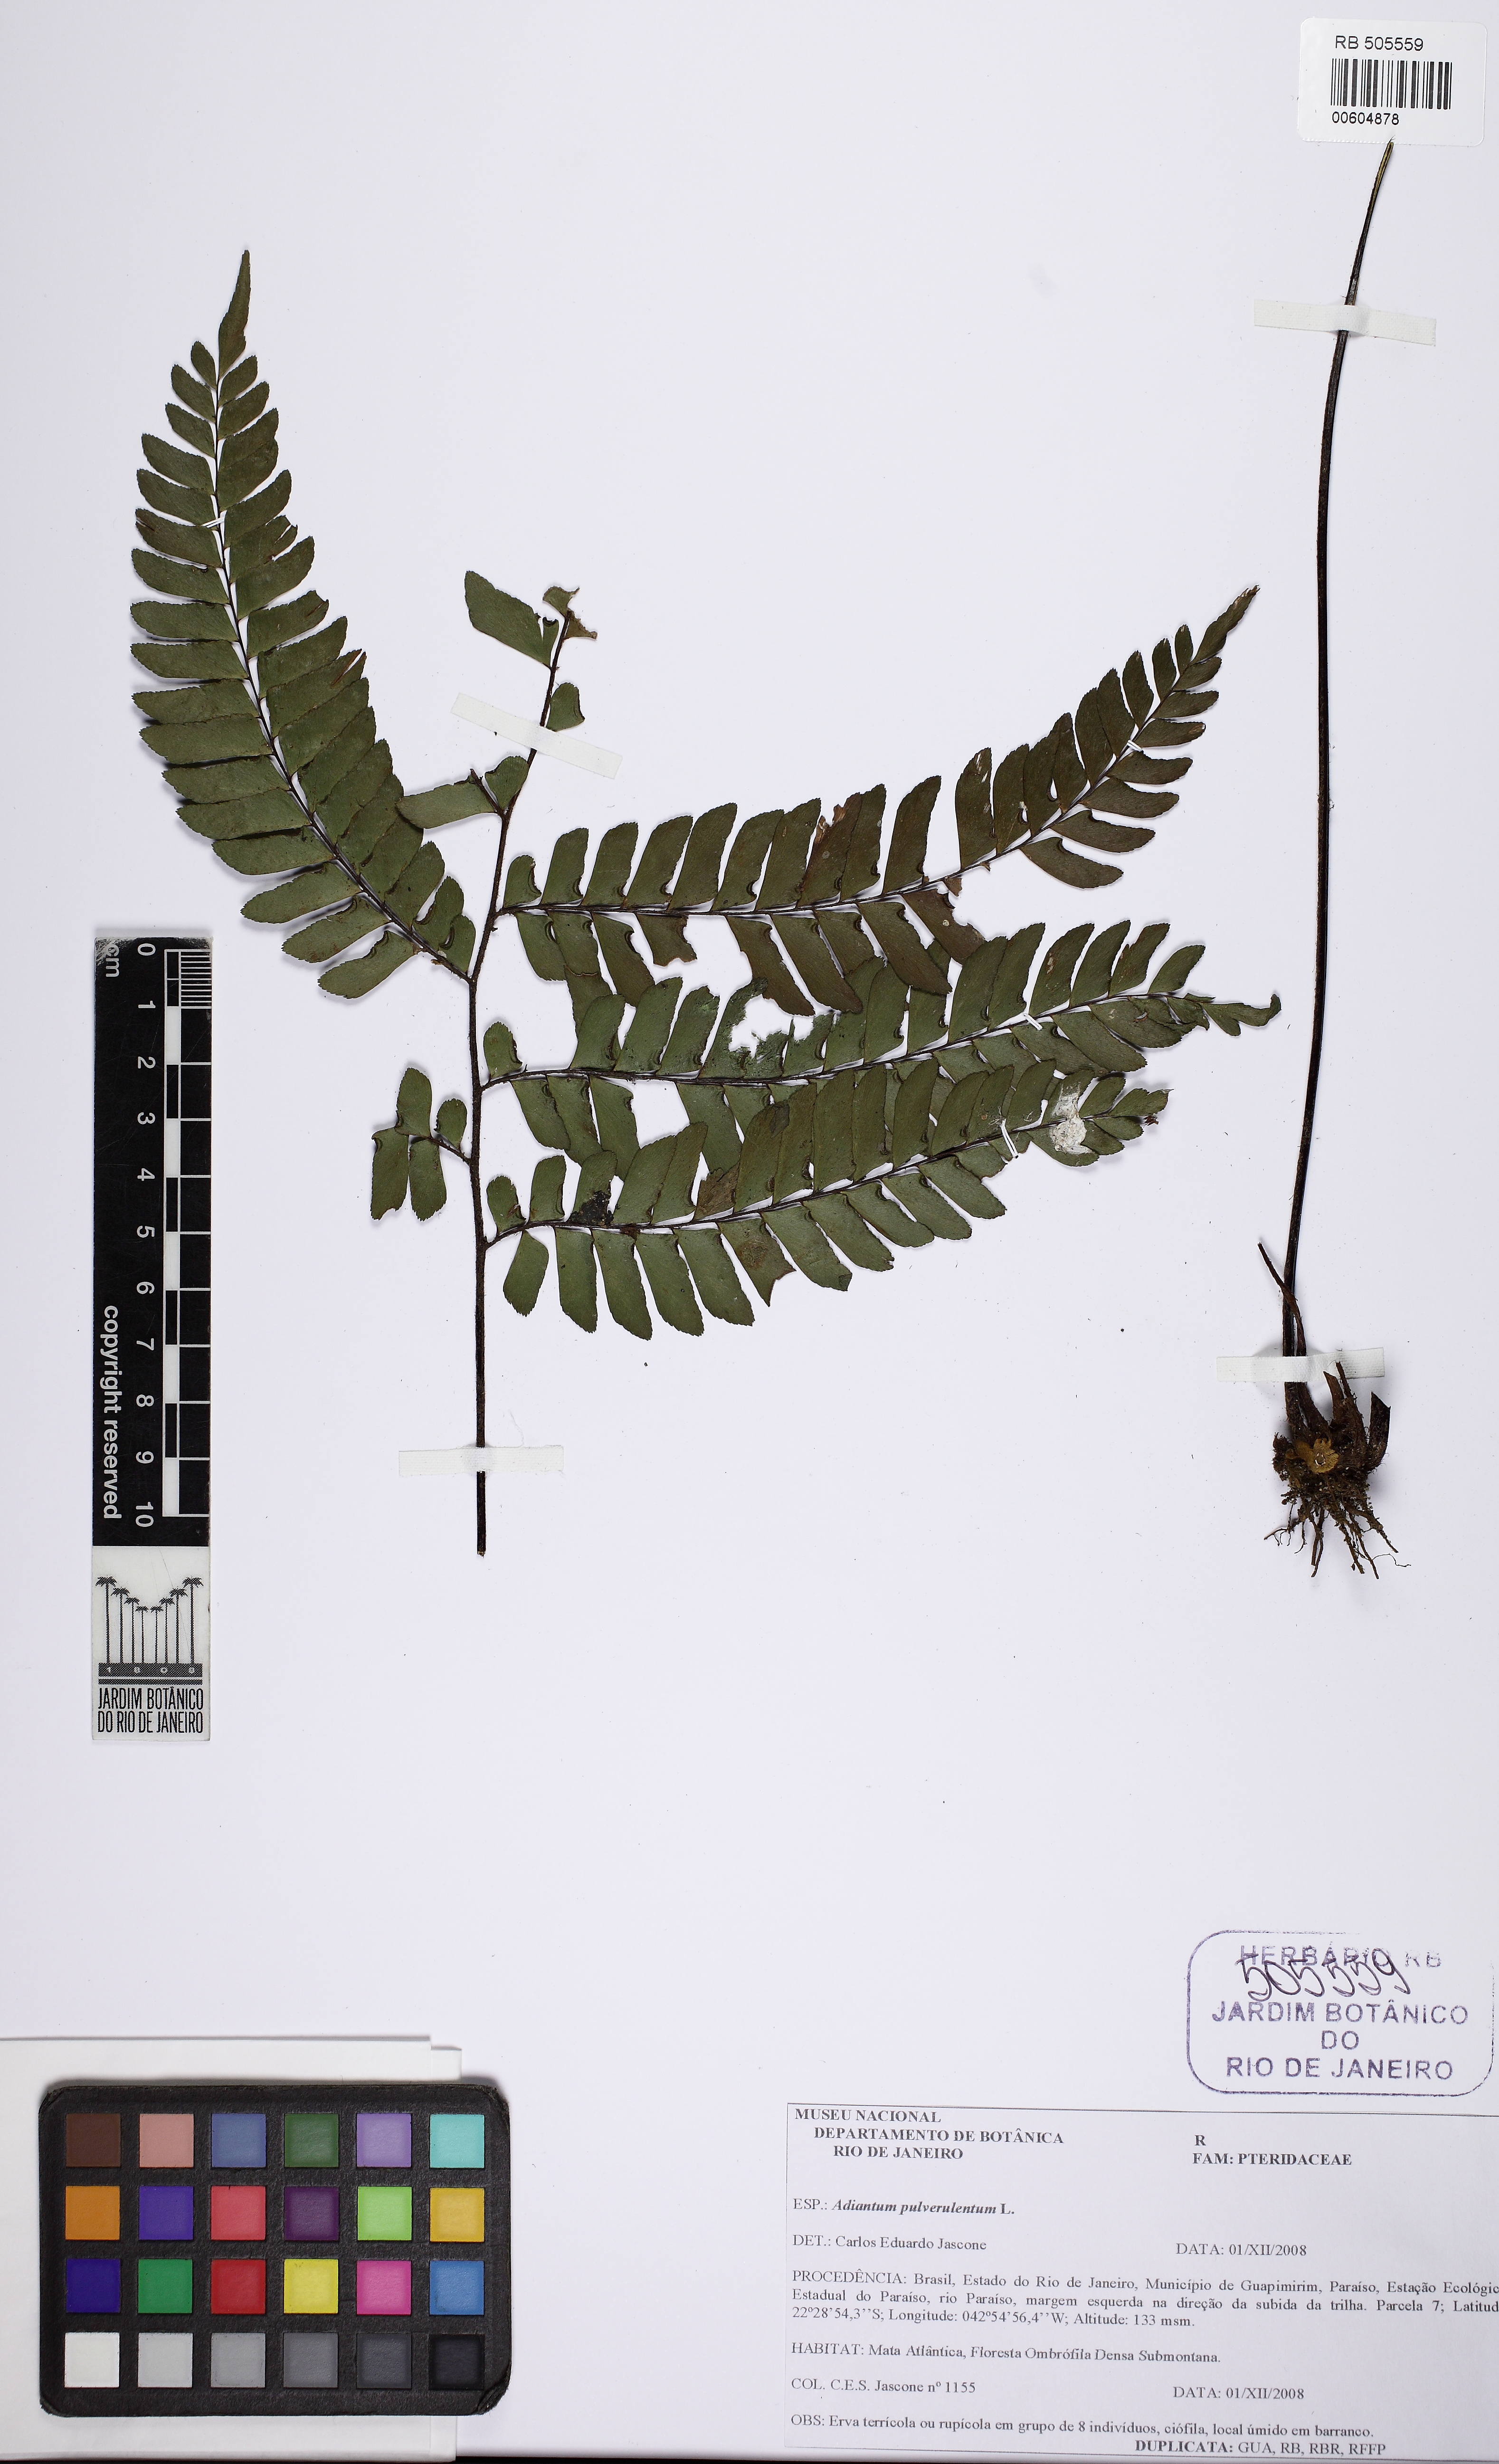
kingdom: Plantae
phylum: Tracheophyta
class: Polypodiopsida
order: Polypodiales
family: Pteridaceae
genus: Adiantum
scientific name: Adiantum pulverulentum
